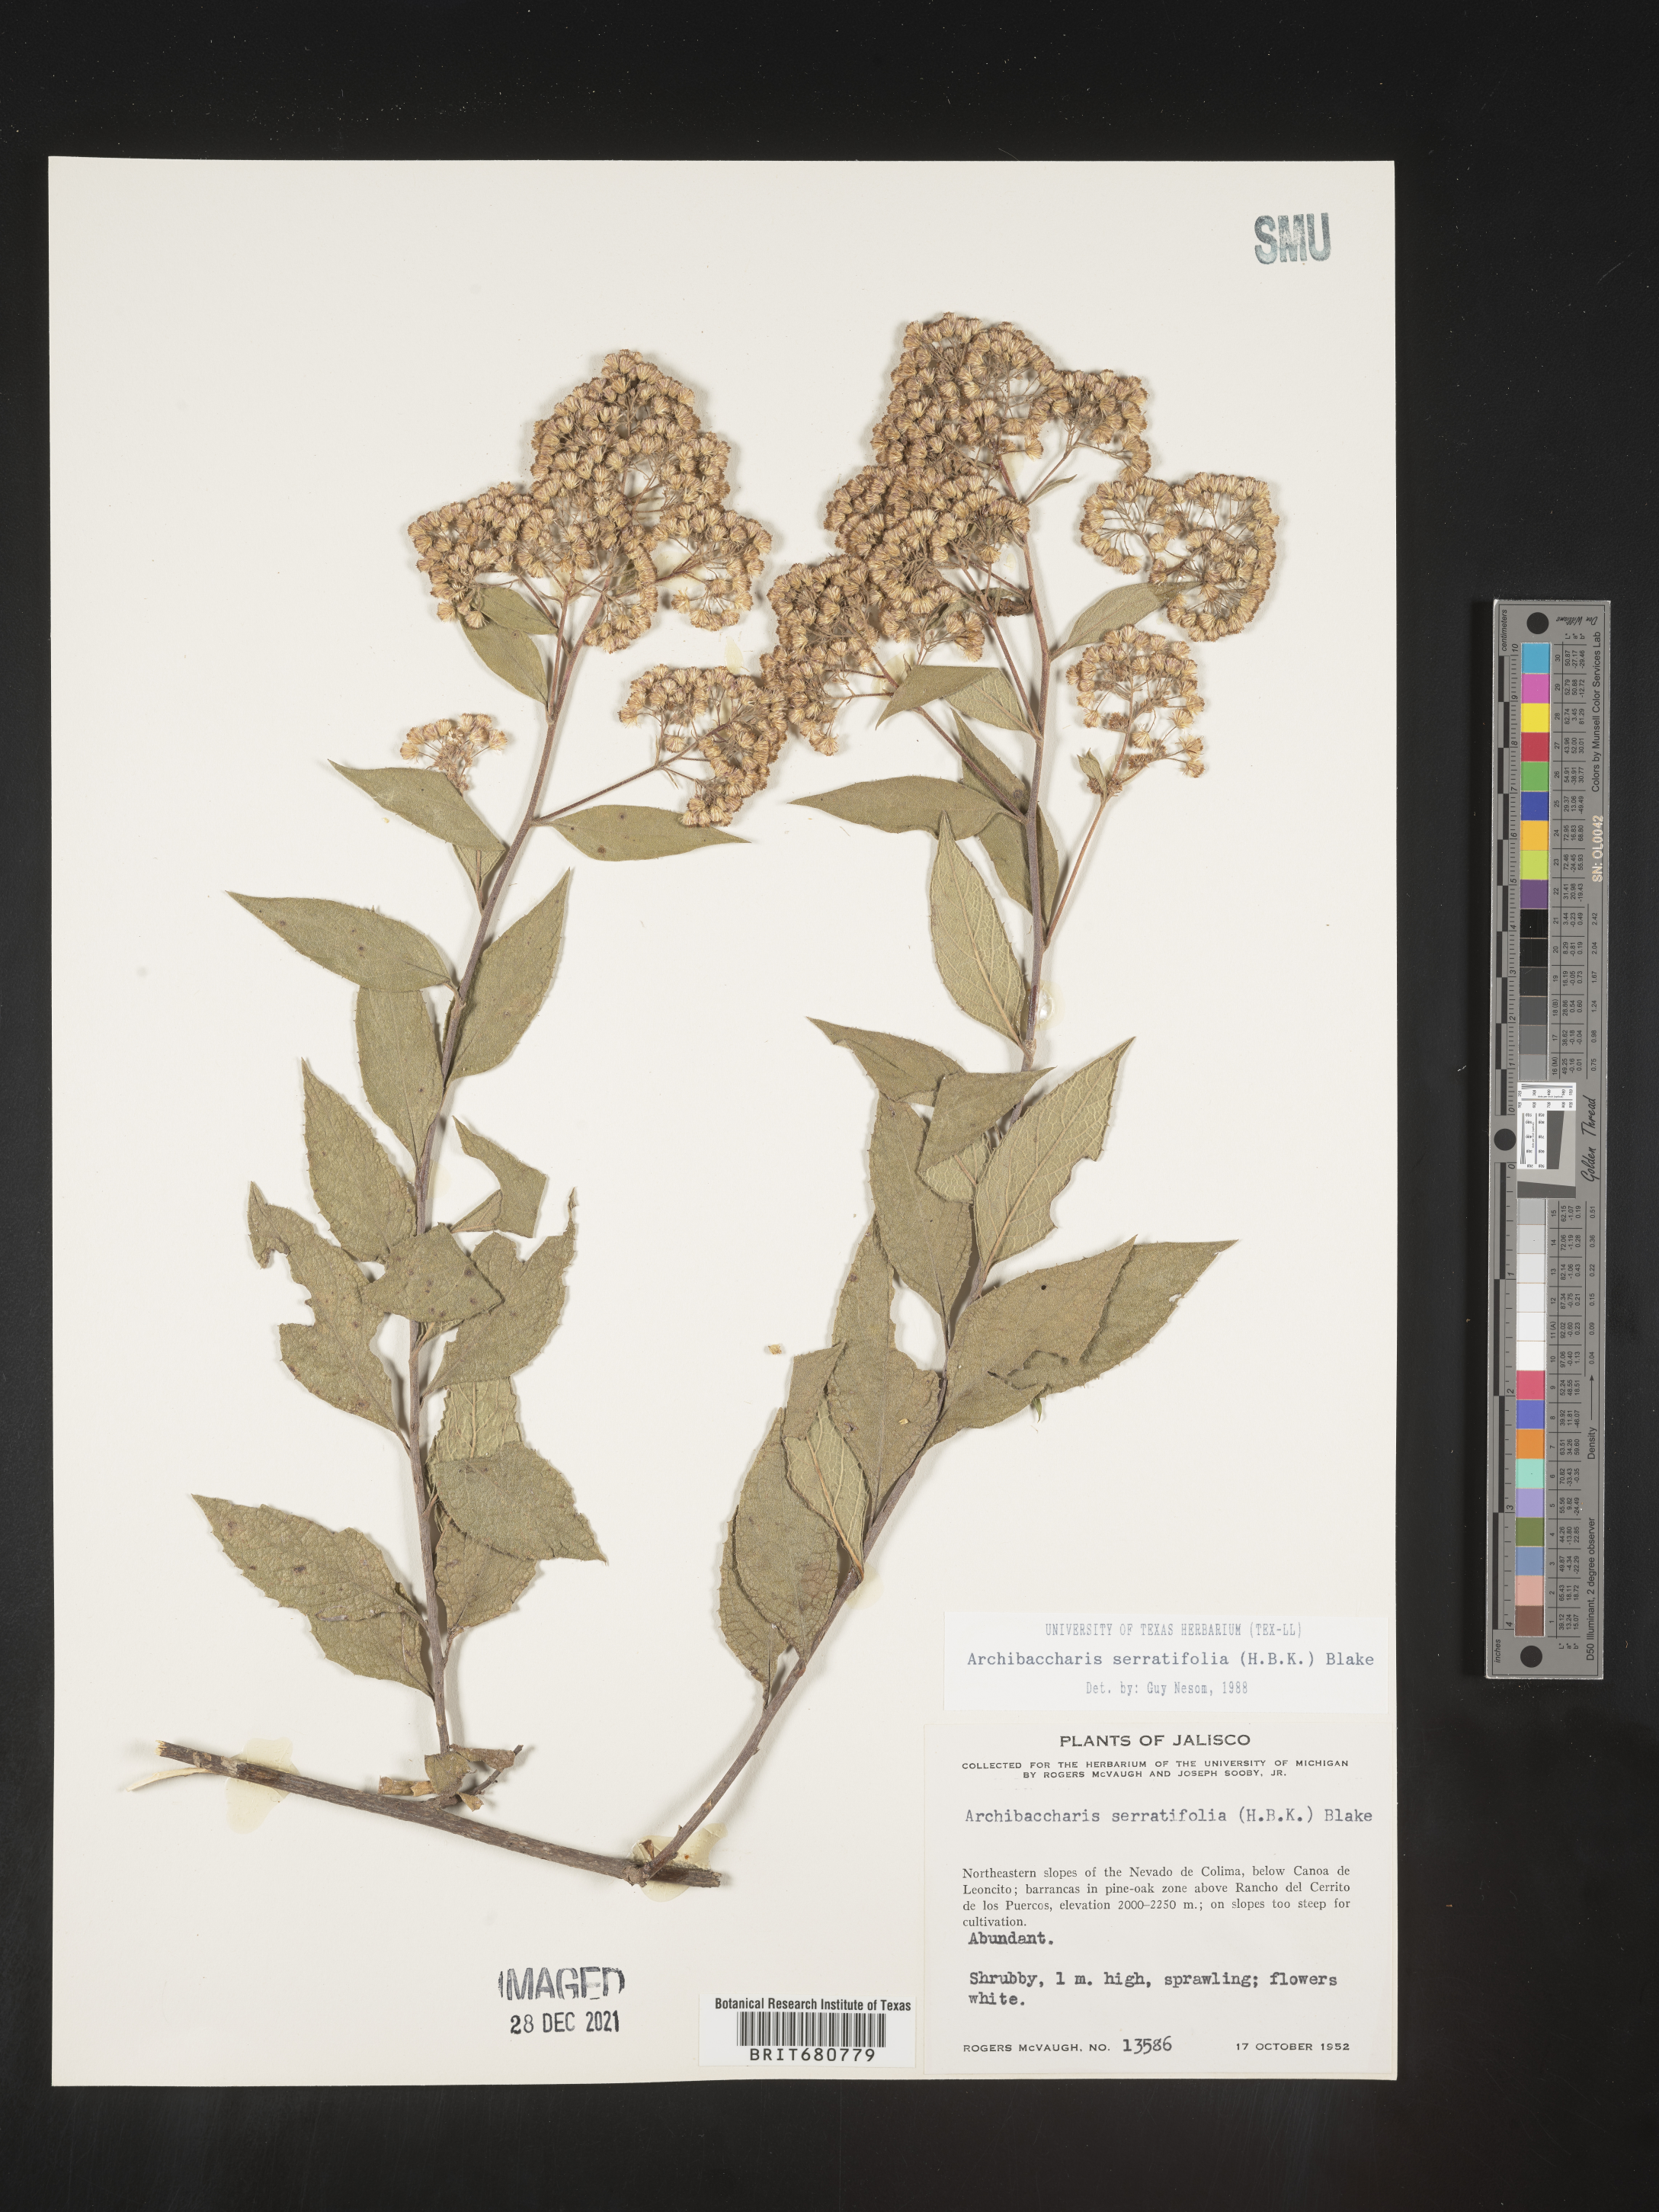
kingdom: Plantae
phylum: Tracheophyta
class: Magnoliopsida
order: Asterales
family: Asteraceae
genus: Archibaccharis
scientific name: Archibaccharis
